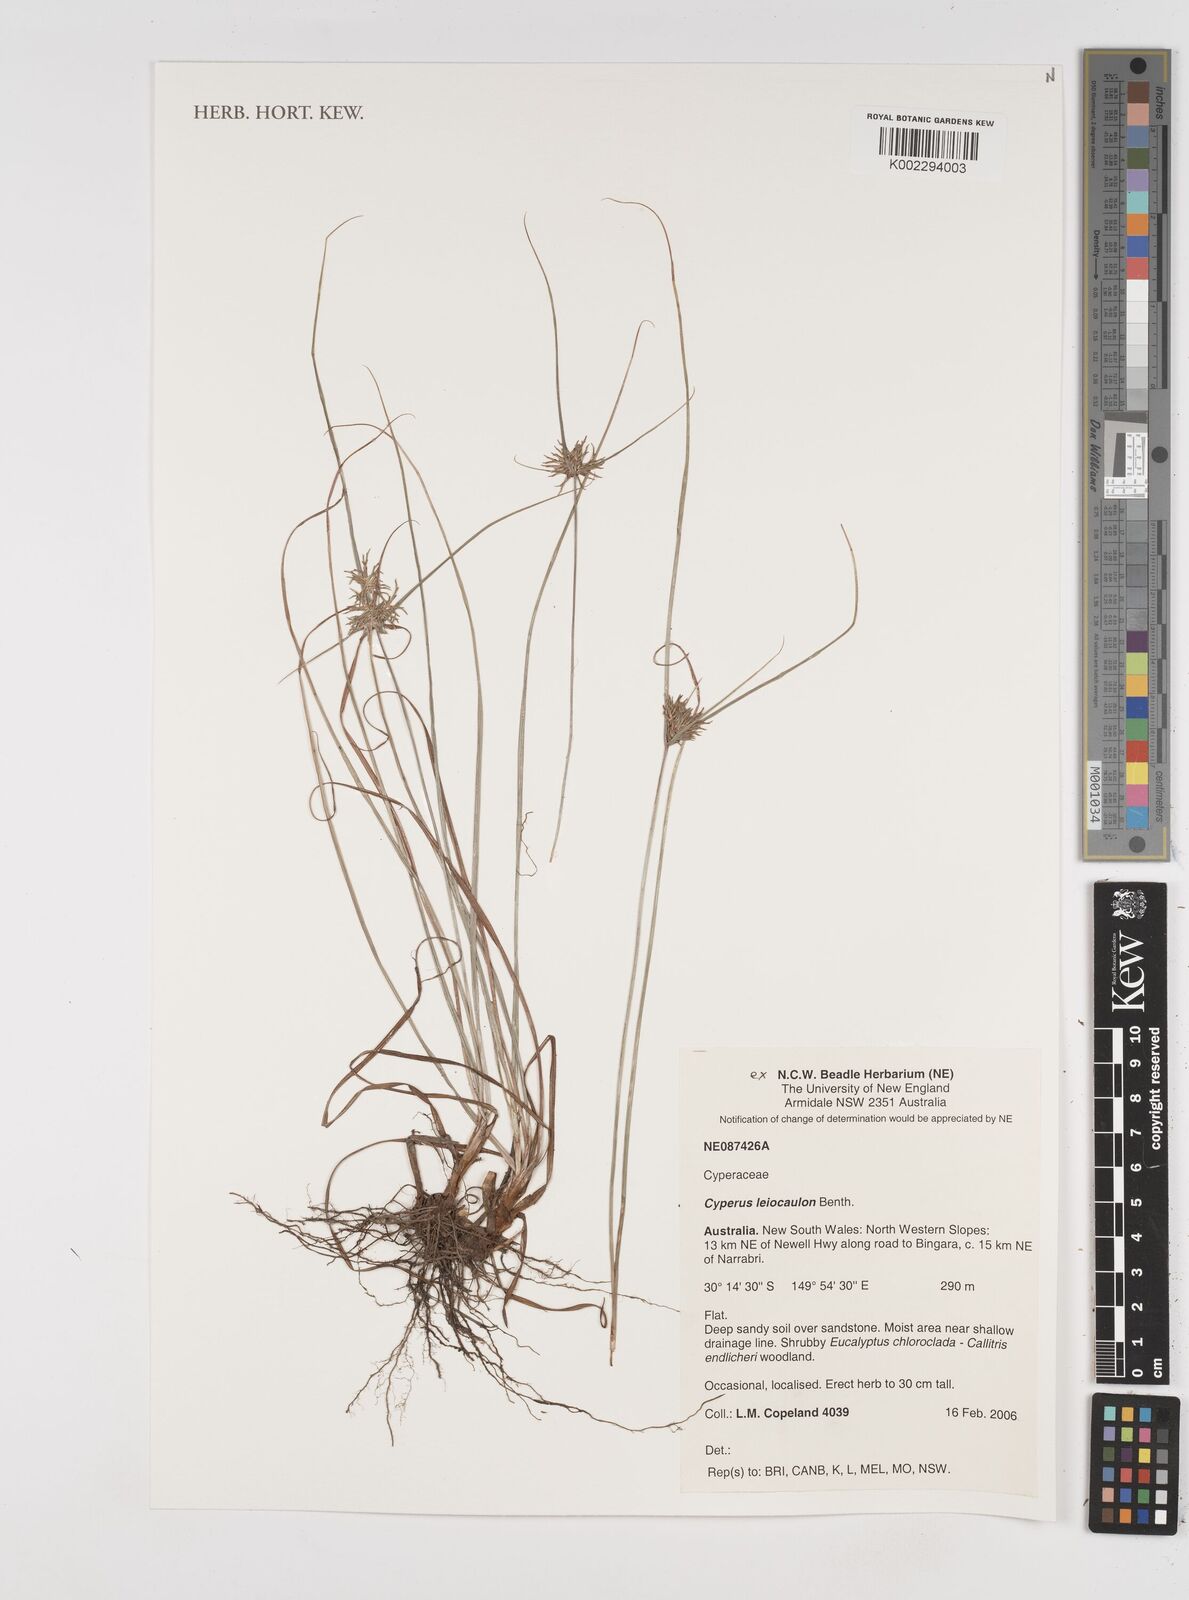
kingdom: Plantae
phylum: Tracheophyta
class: Liliopsida
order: Poales
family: Cyperaceae
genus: Cyperus
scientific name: Cyperus leiocaulon
